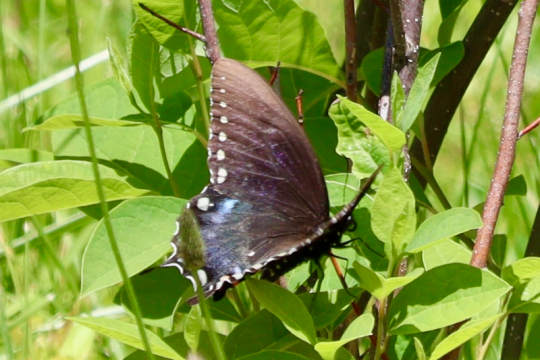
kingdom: Animalia
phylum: Arthropoda
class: Insecta
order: Lepidoptera
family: Papilionidae
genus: Pterourus
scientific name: Pterourus troilus
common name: Spicebush Swallowtail
